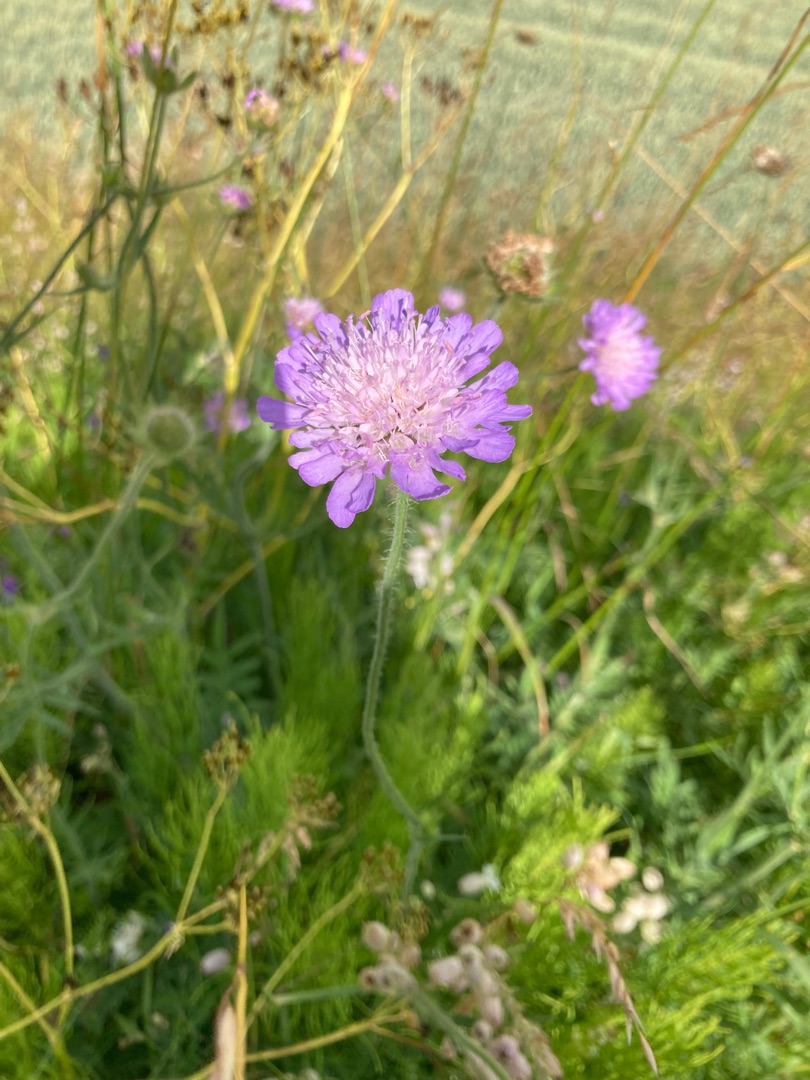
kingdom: Plantae
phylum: Tracheophyta
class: Magnoliopsida
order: Dipsacales
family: Caprifoliaceae
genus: Knautia
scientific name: Knautia arvensis
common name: Blåhat
